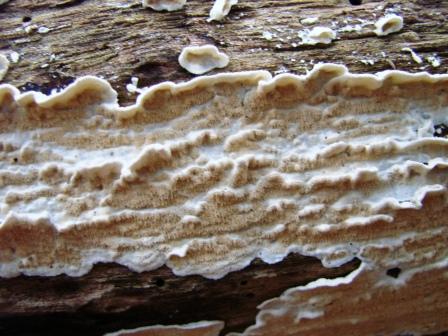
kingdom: Fungi
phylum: Basidiomycota
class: Agaricomycetes
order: Polyporales
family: Irpicaceae
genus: Byssomerulius
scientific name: Byssomerulius corium
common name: læder-åresvamp
